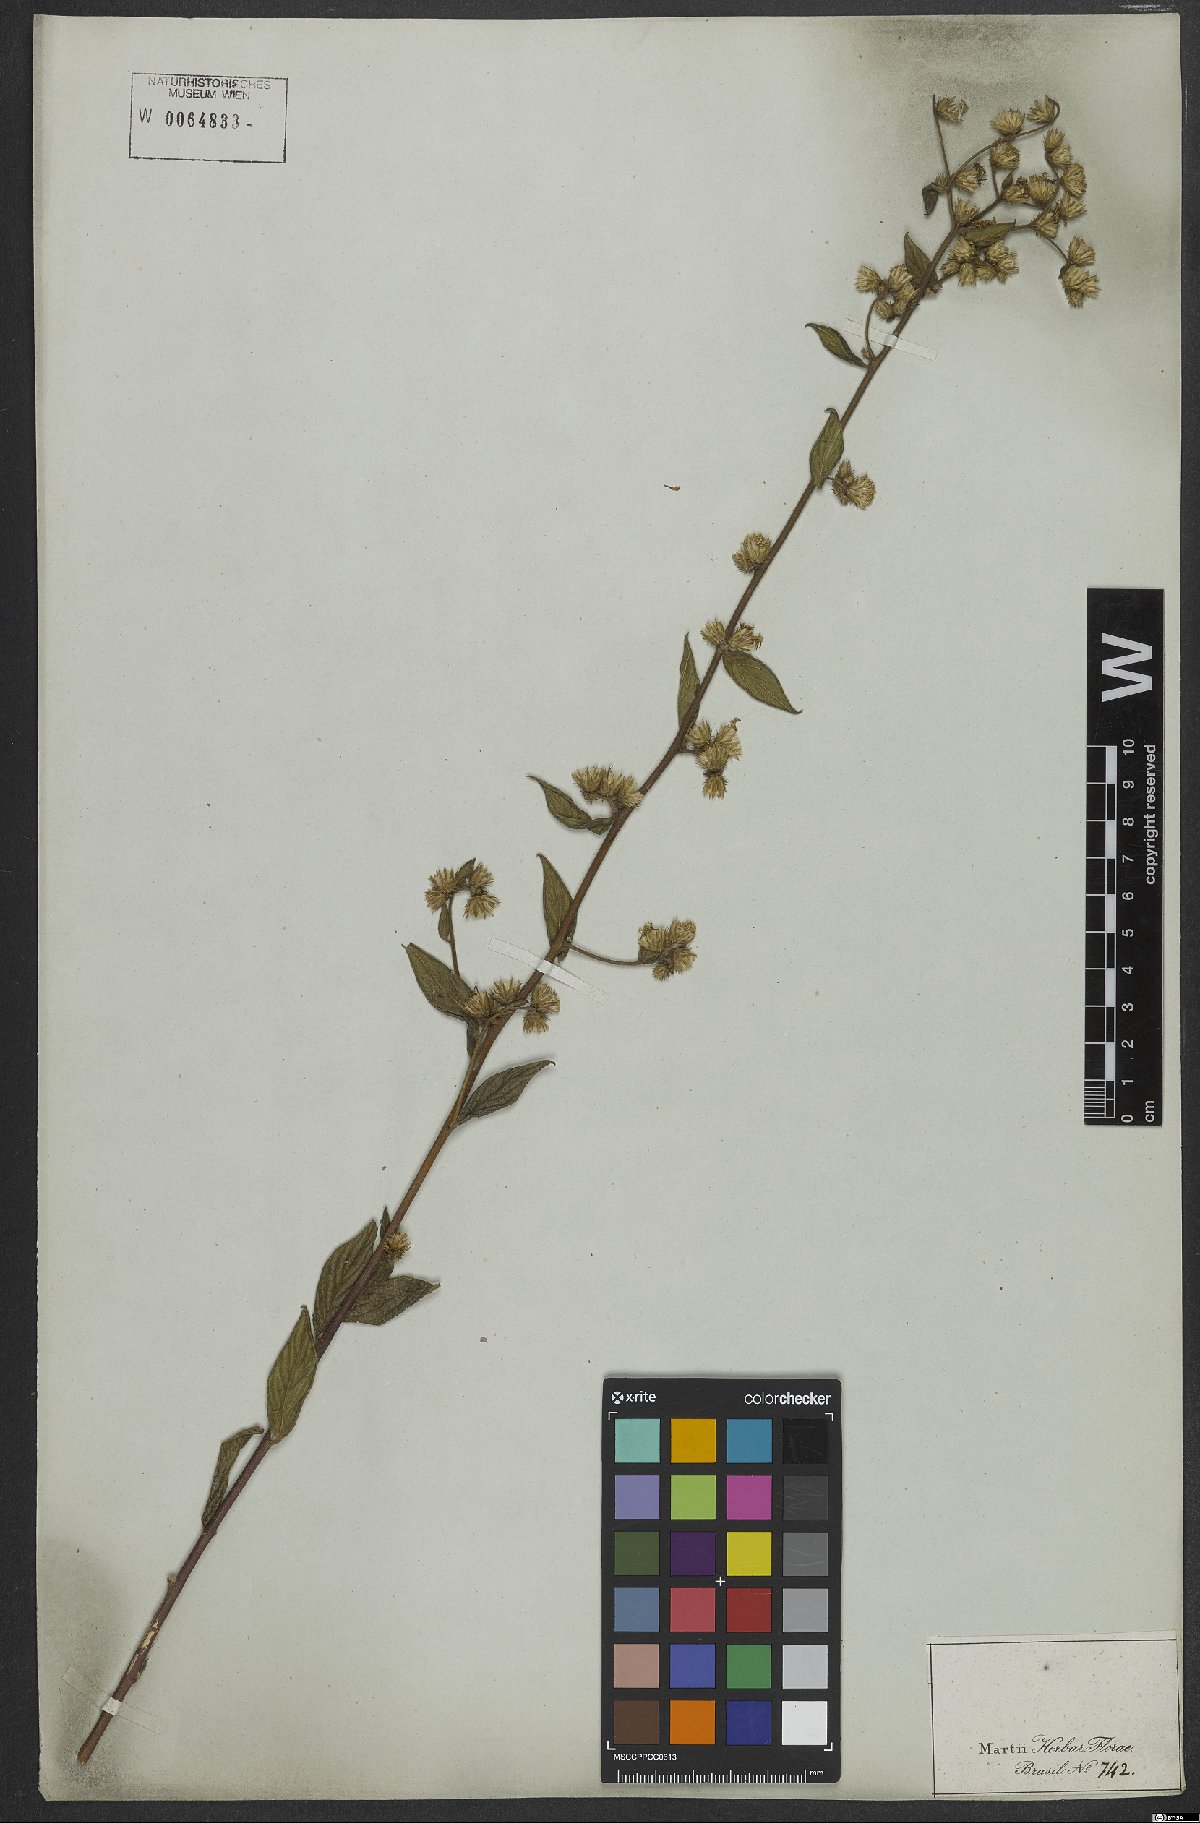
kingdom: Plantae
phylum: Tracheophyta
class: Magnoliopsida
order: Asterales
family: Asteraceae
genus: Lepidaploa
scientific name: Lepidaploa sericea
